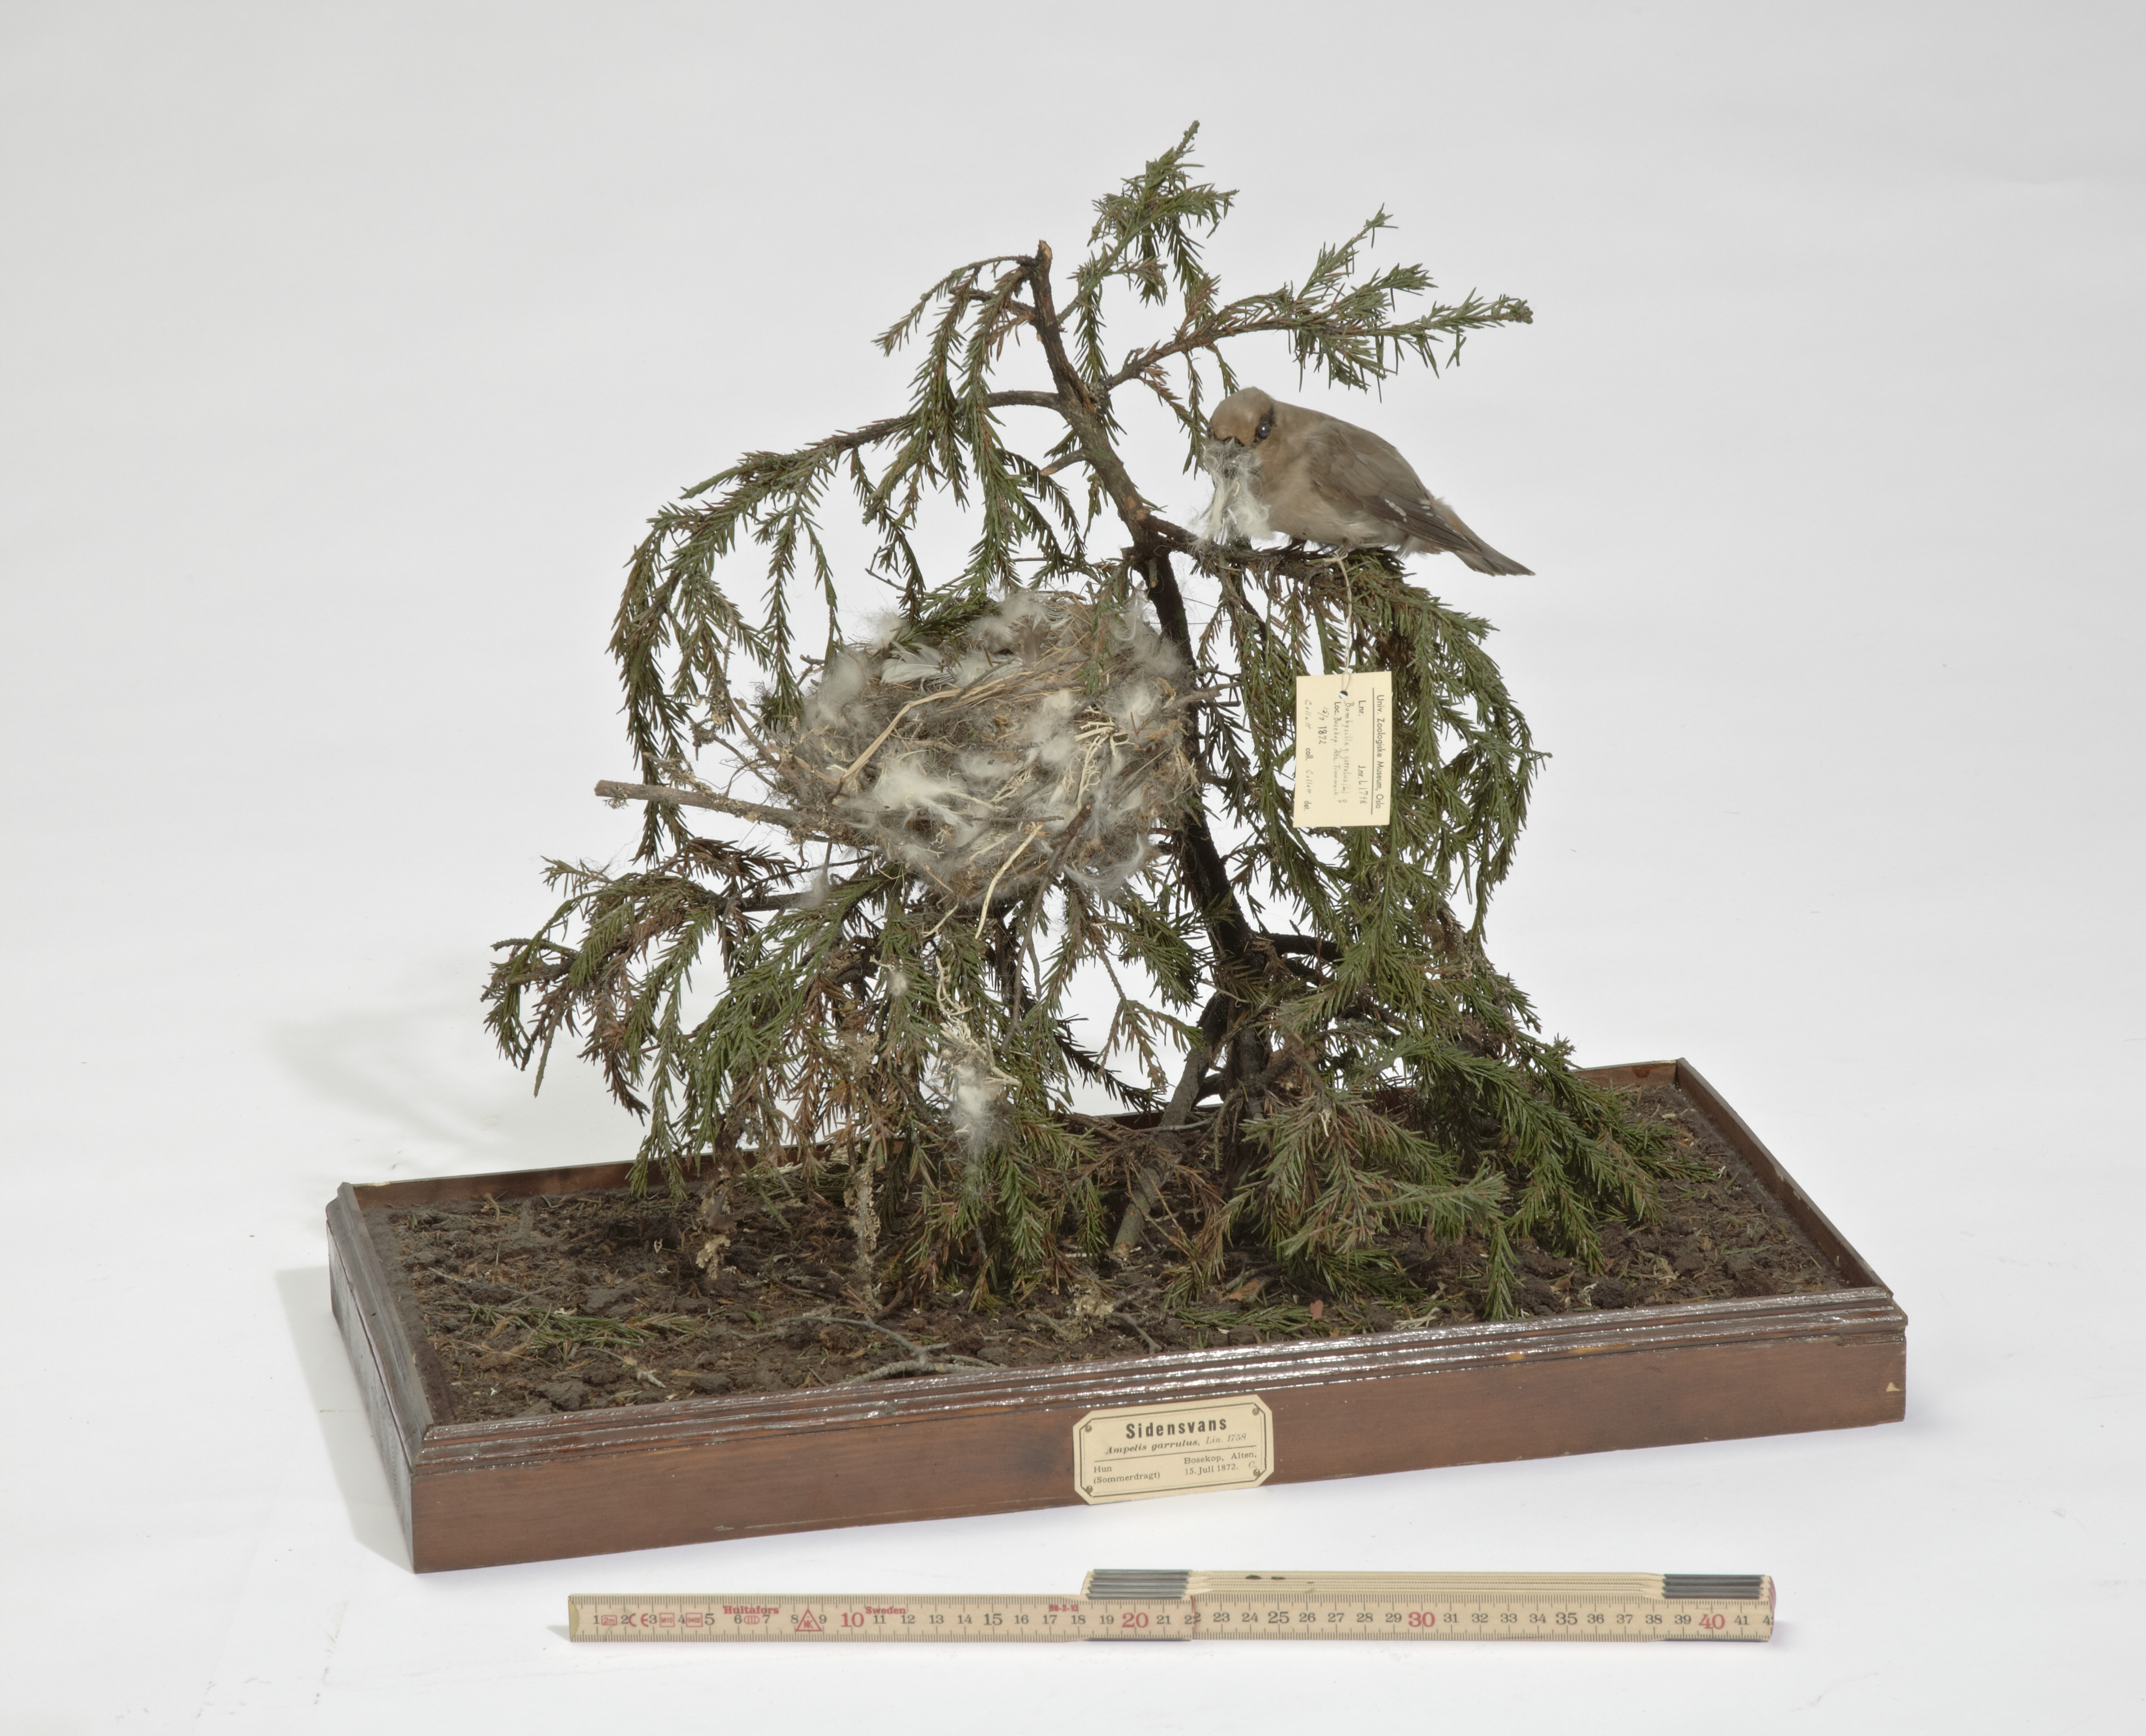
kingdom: Animalia
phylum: Chordata
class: Aves
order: Passeriformes
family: Bombycillidae
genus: Bombycilla
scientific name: Bombycilla garrulus
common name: Bohemian waxwing
